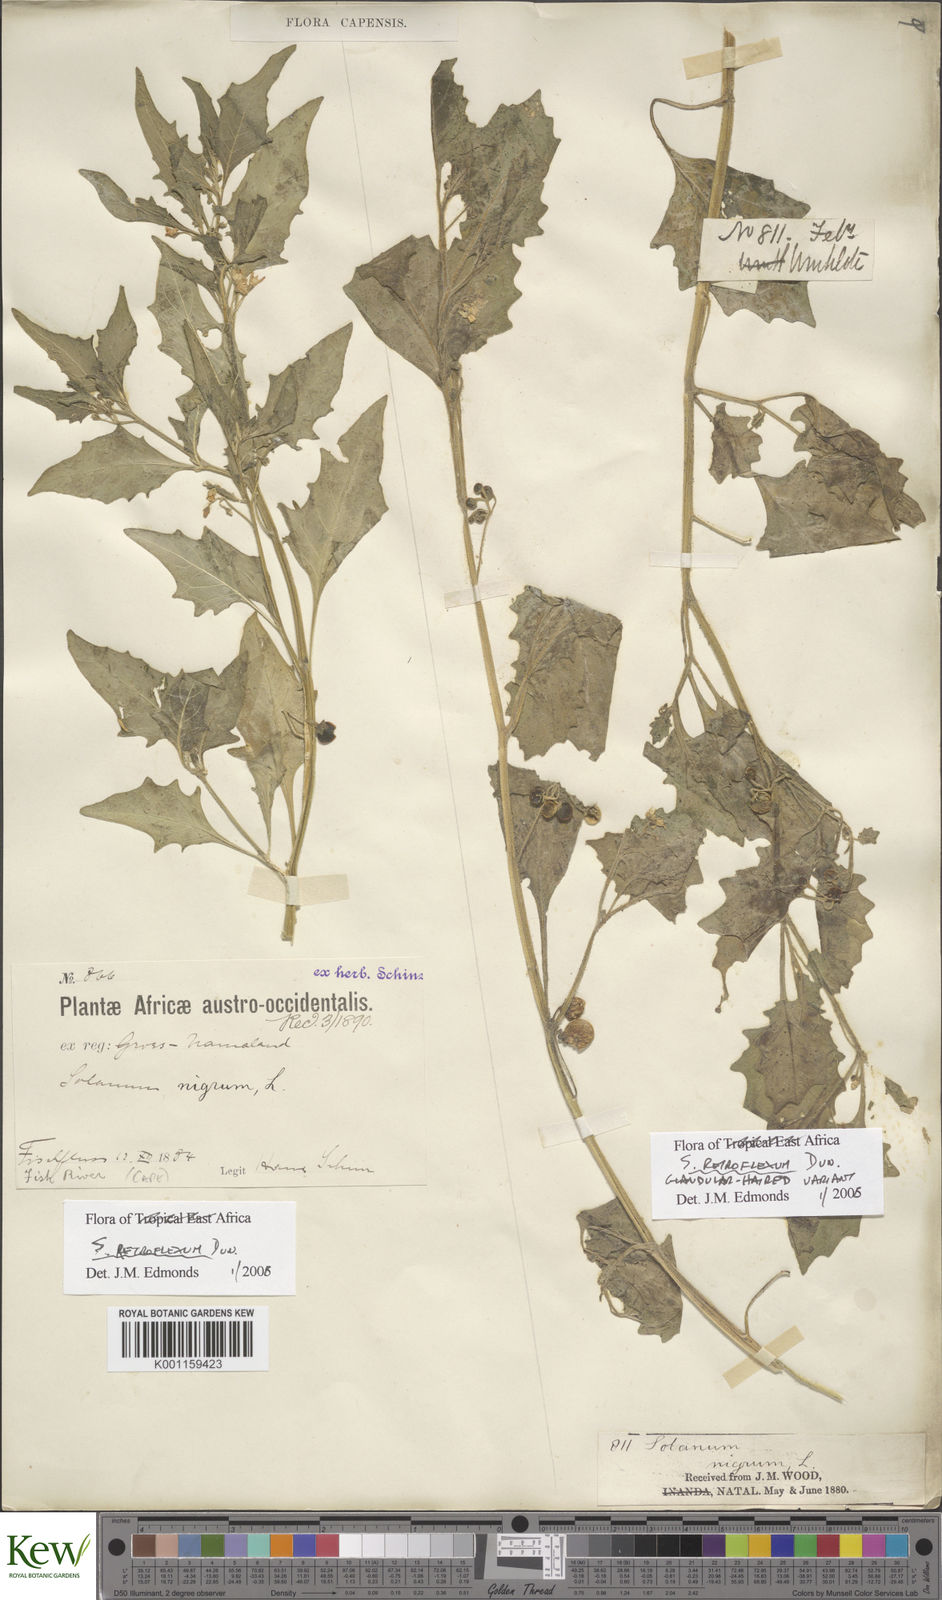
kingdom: Plantae
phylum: Tracheophyta
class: Magnoliopsida
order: Solanales
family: Solanaceae
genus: Solanum
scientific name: Solanum retroflexum
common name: Wonderberry
